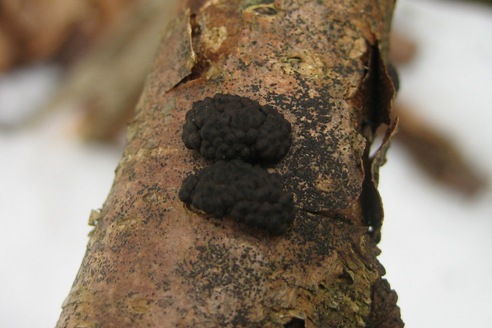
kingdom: Fungi
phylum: Ascomycota
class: Sordariomycetes
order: Xylariales
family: Hypoxylaceae
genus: Jackrogersella
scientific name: Jackrogersella multiformis
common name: foranderlig kulbær
